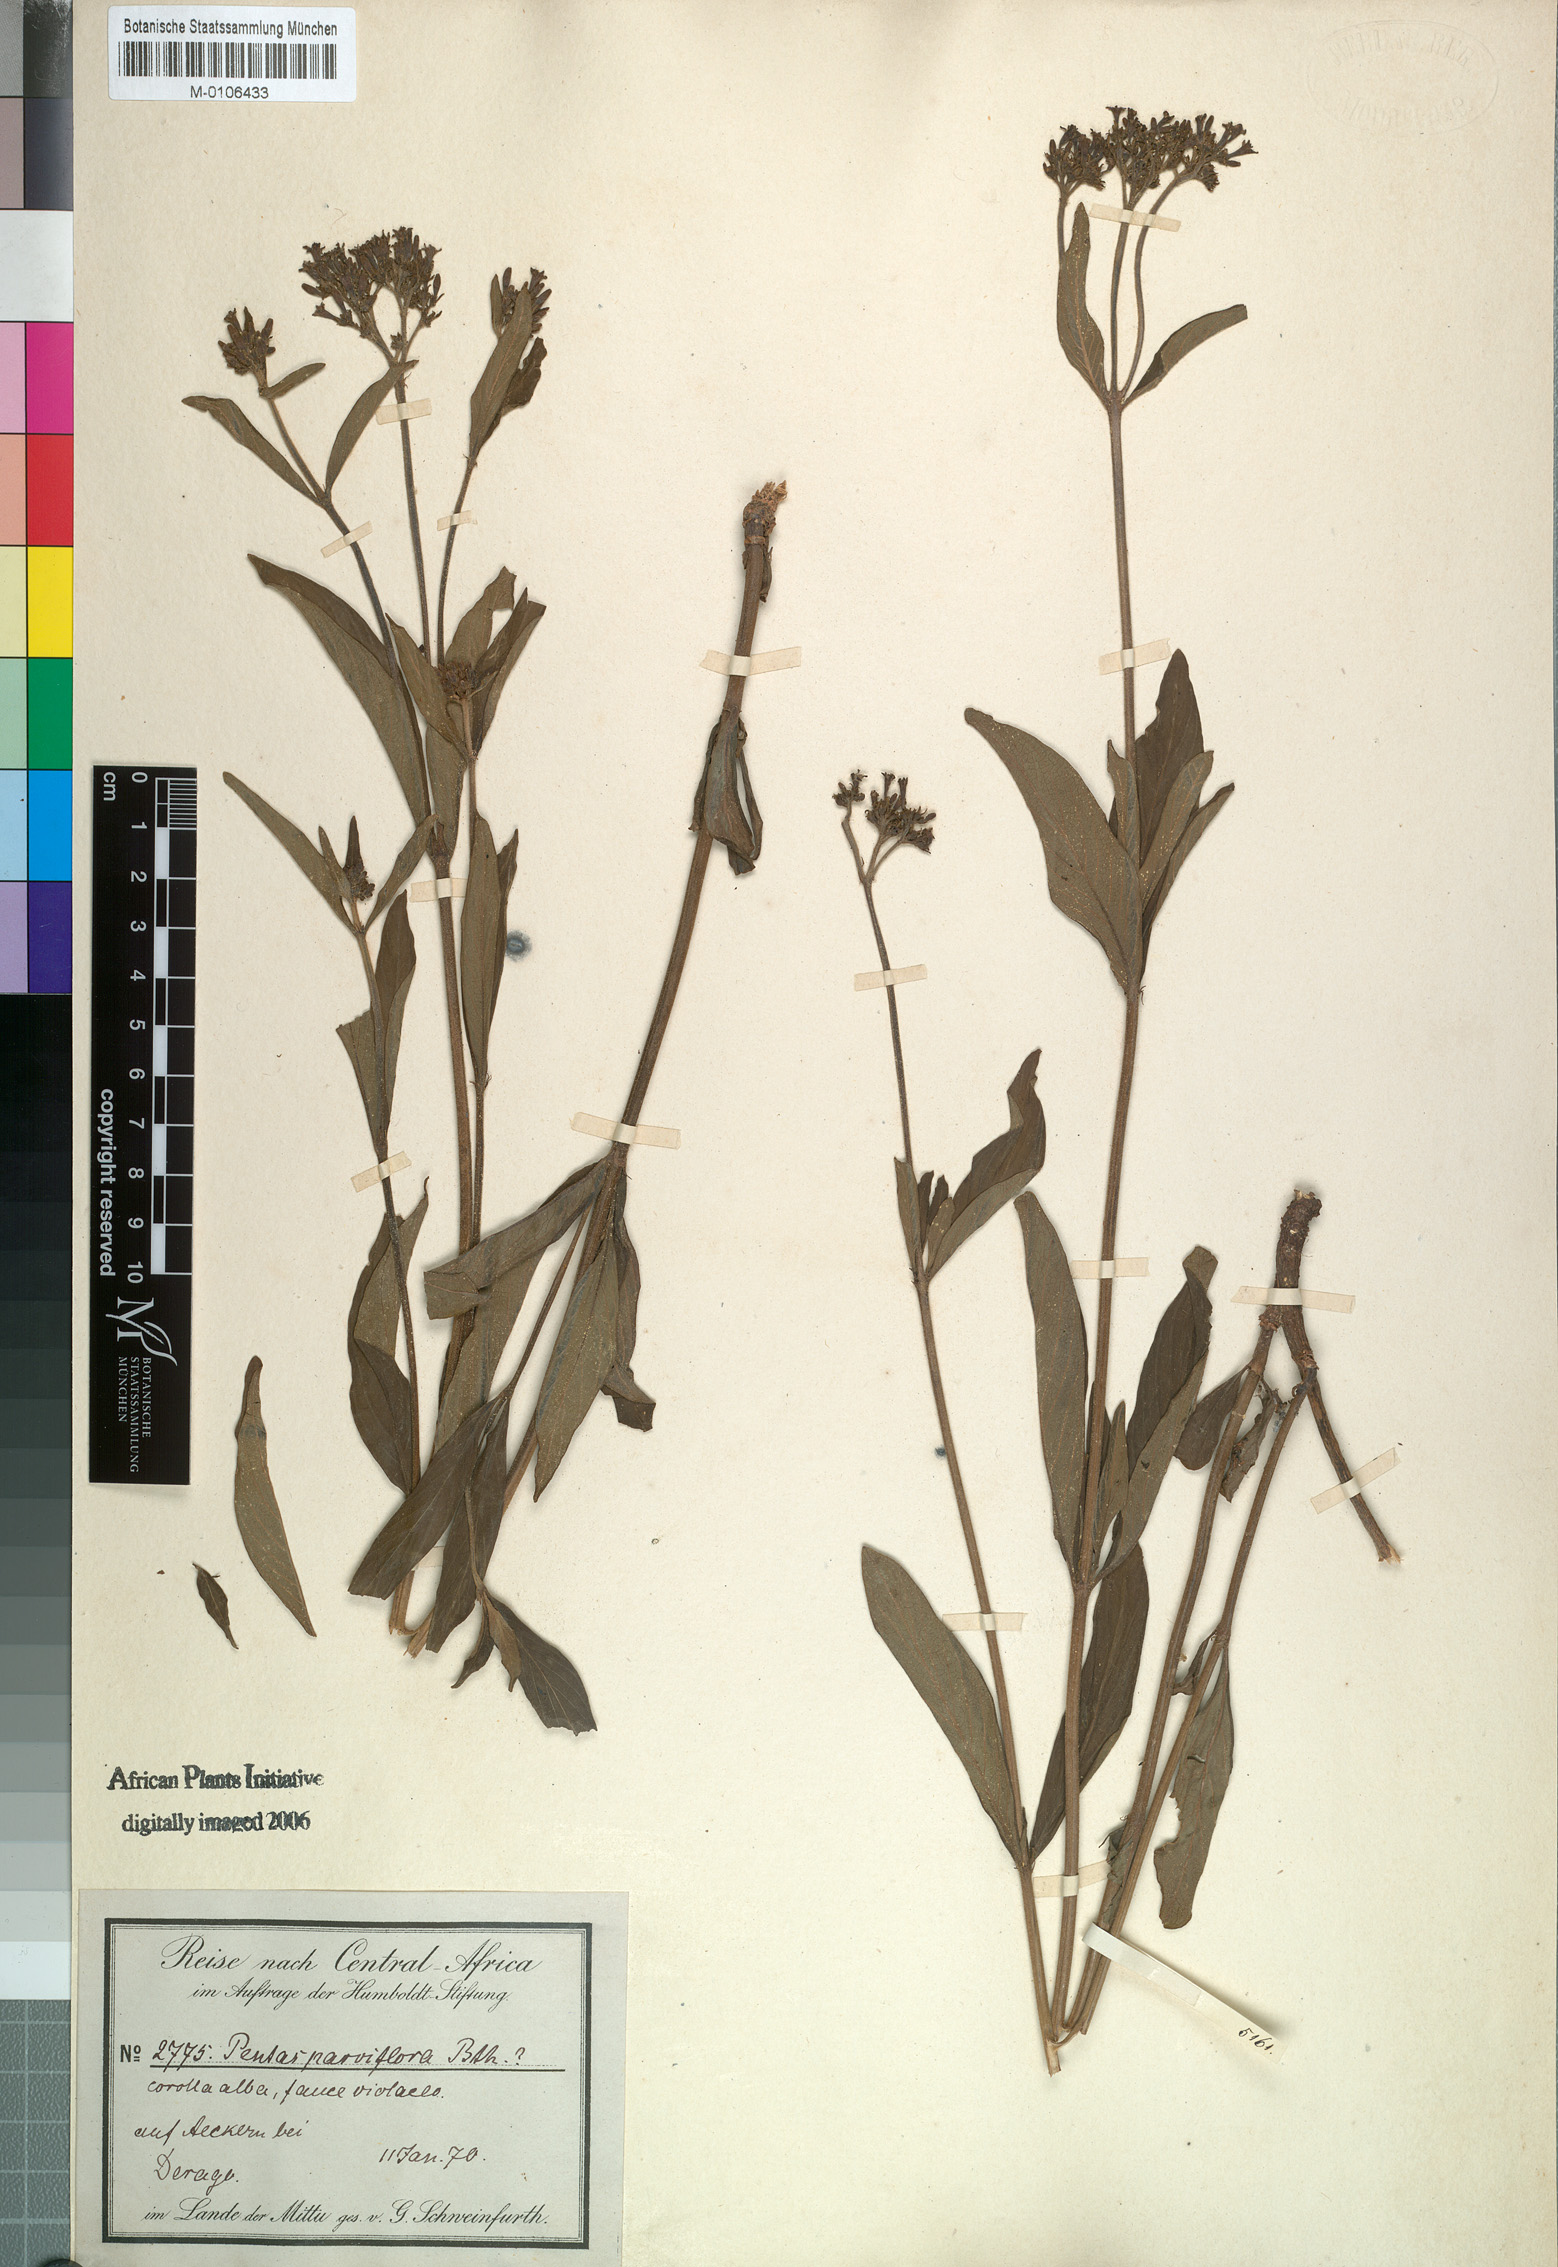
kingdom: Plantae
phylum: Tracheophyta
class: Magnoliopsida
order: Gentianales
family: Rubiaceae
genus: Sacosperma
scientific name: Sacosperma parviflorum
